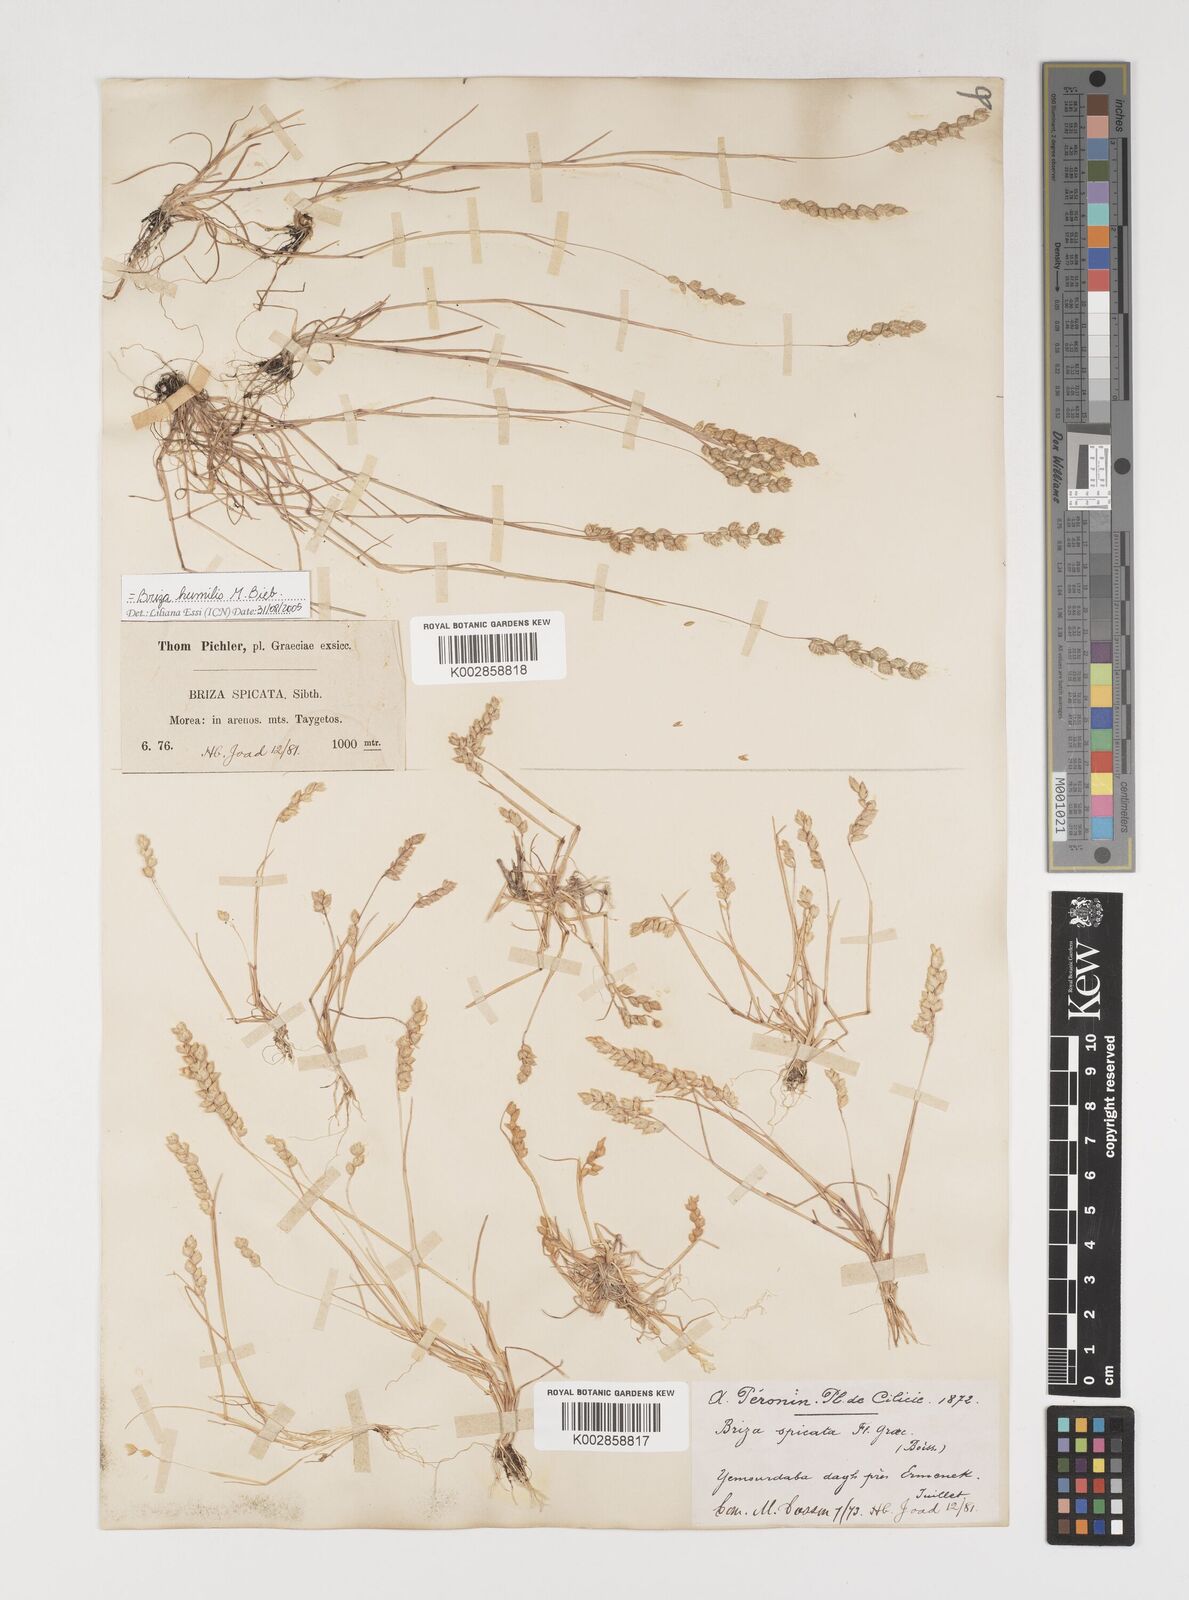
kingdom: Plantae
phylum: Tracheophyta
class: Liliopsida
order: Poales
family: Poaceae
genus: Briza
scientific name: Briza humilis
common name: Spiked quaking grass
